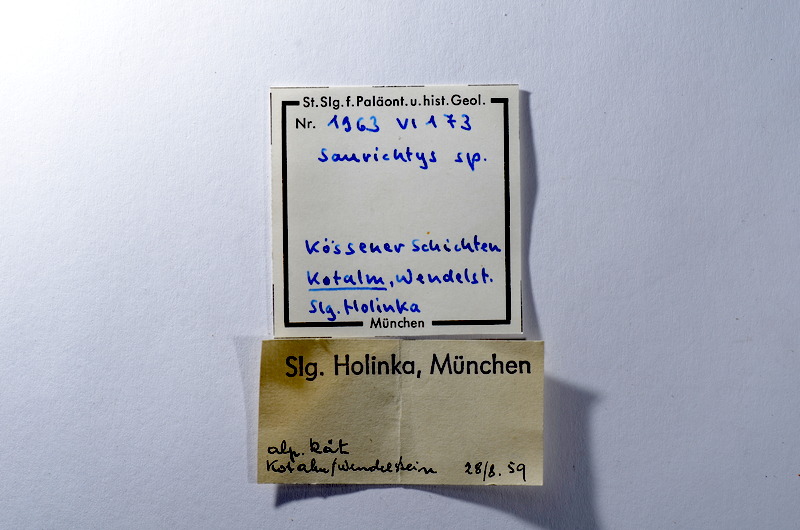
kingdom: Animalia
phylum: Chordata
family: Saurichthyidae
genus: Saurichthys
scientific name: Saurichthys
